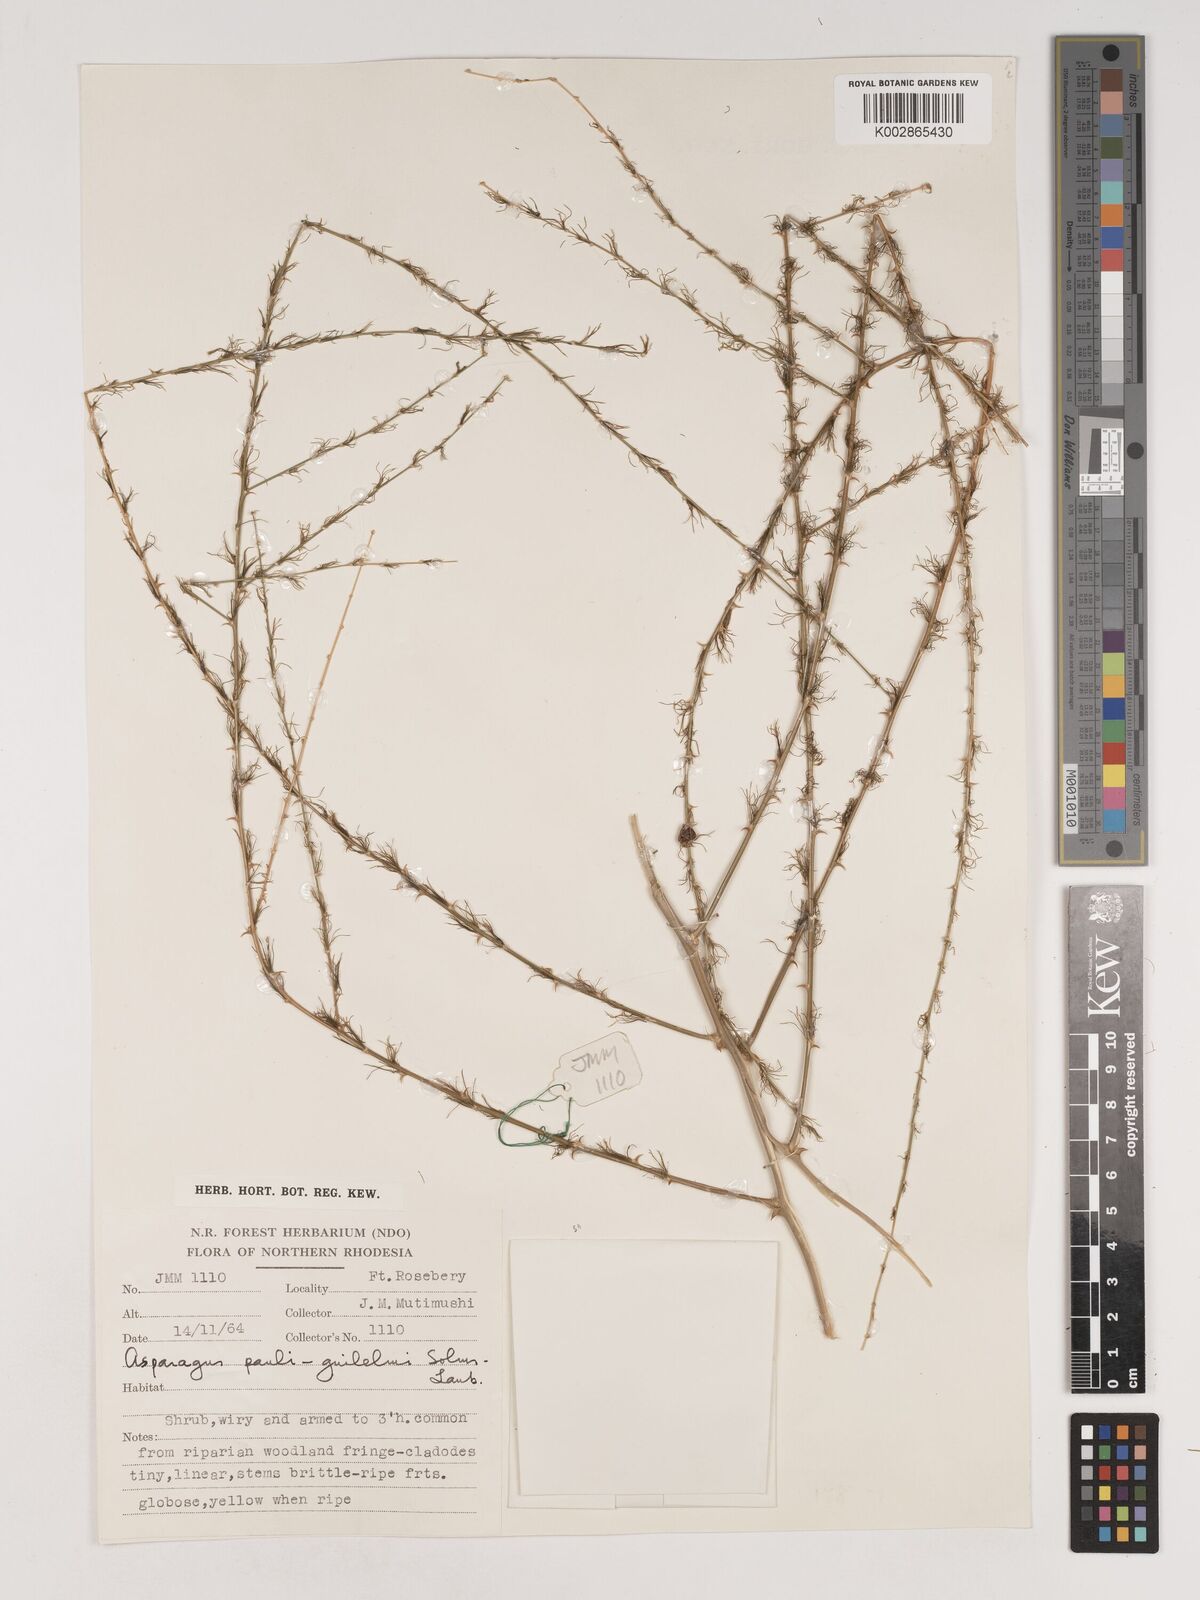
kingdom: Plantae
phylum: Tracheophyta
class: Liliopsida
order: Asparagales
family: Asparagaceae
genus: Asparagus
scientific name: Asparagus flagellaris
